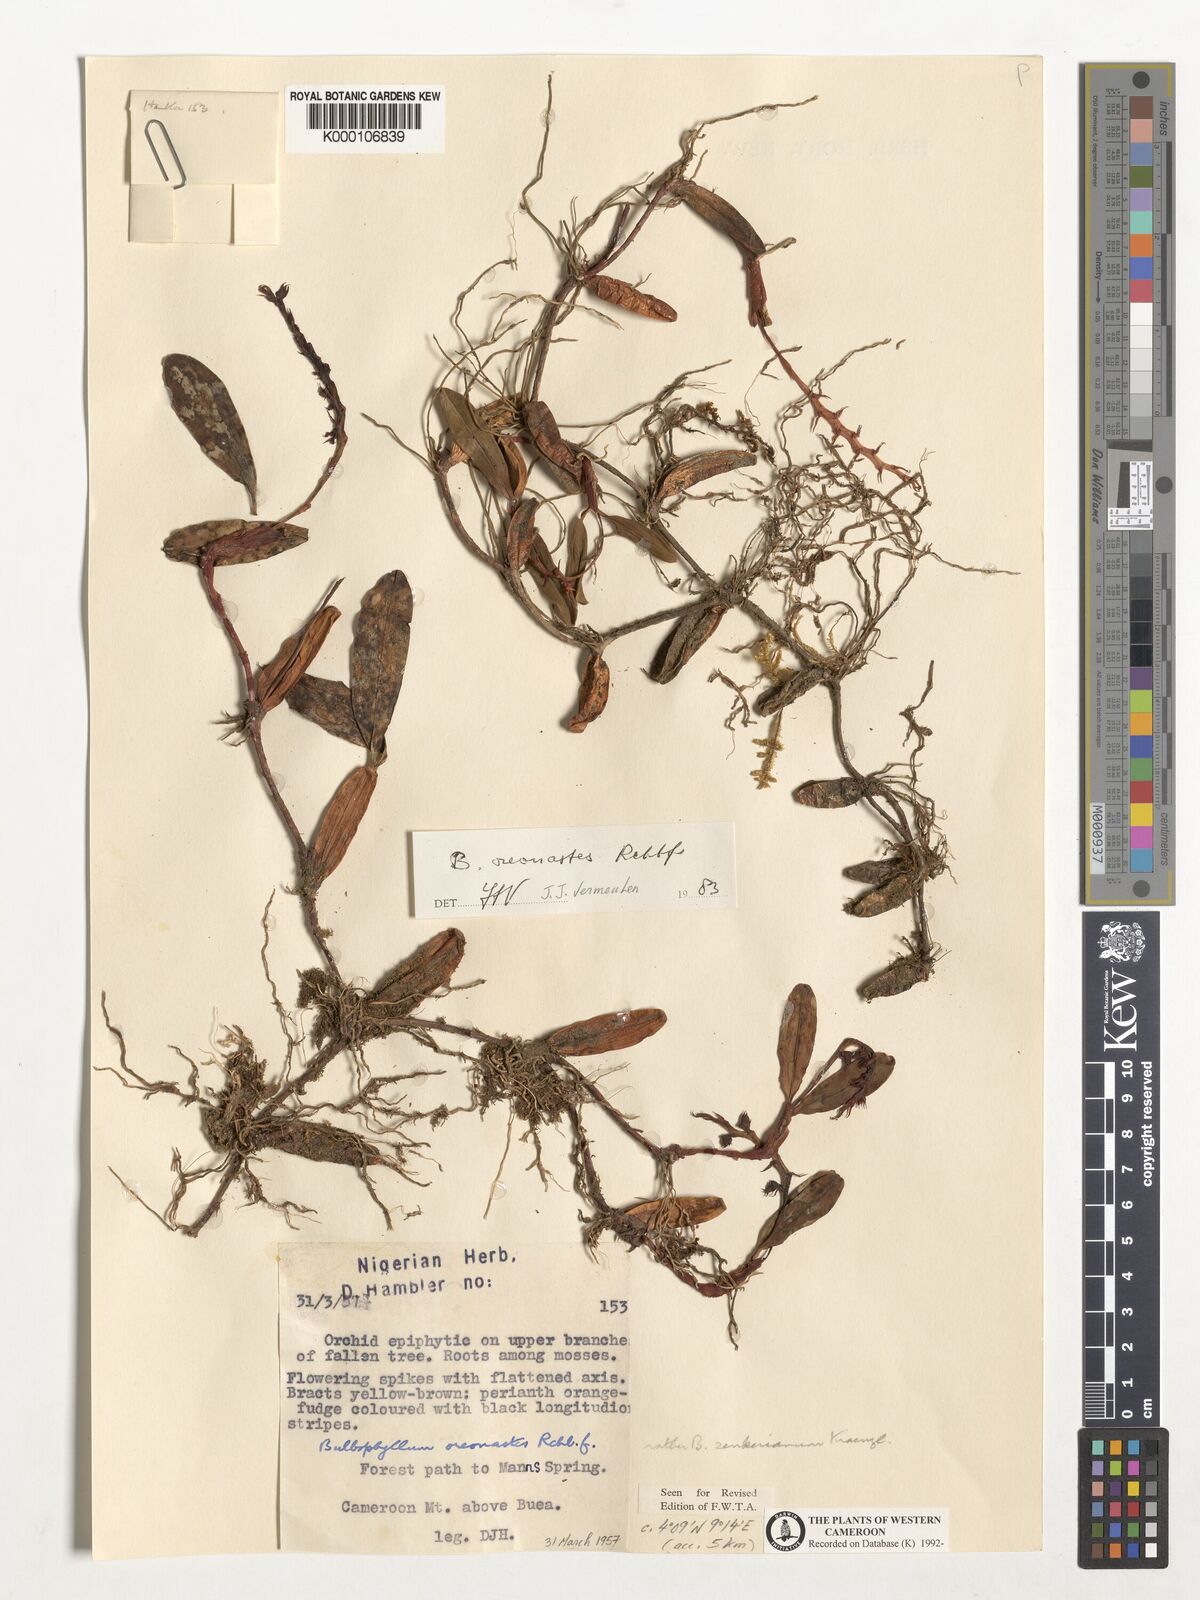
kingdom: Plantae
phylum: Tracheophyta
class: Liliopsida
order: Asparagales
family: Orchidaceae
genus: Bulbophyllum
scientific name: Bulbophyllum oreonastes
